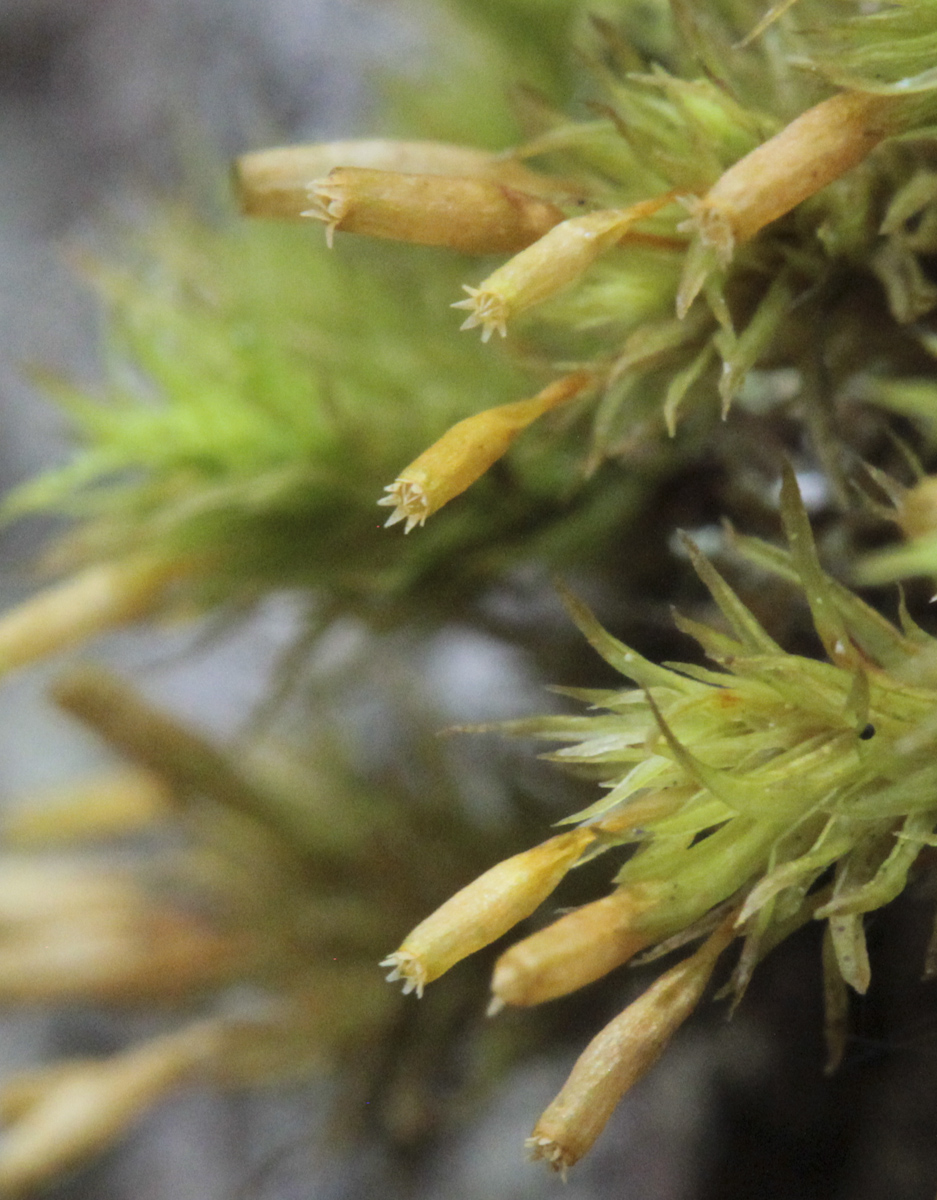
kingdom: Plantae
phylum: Bryophyta
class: Bryopsida
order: Orthotrichales
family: Orthotrichaceae
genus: Lewinskya
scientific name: Lewinskya speciosa
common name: Showy bristle moss
